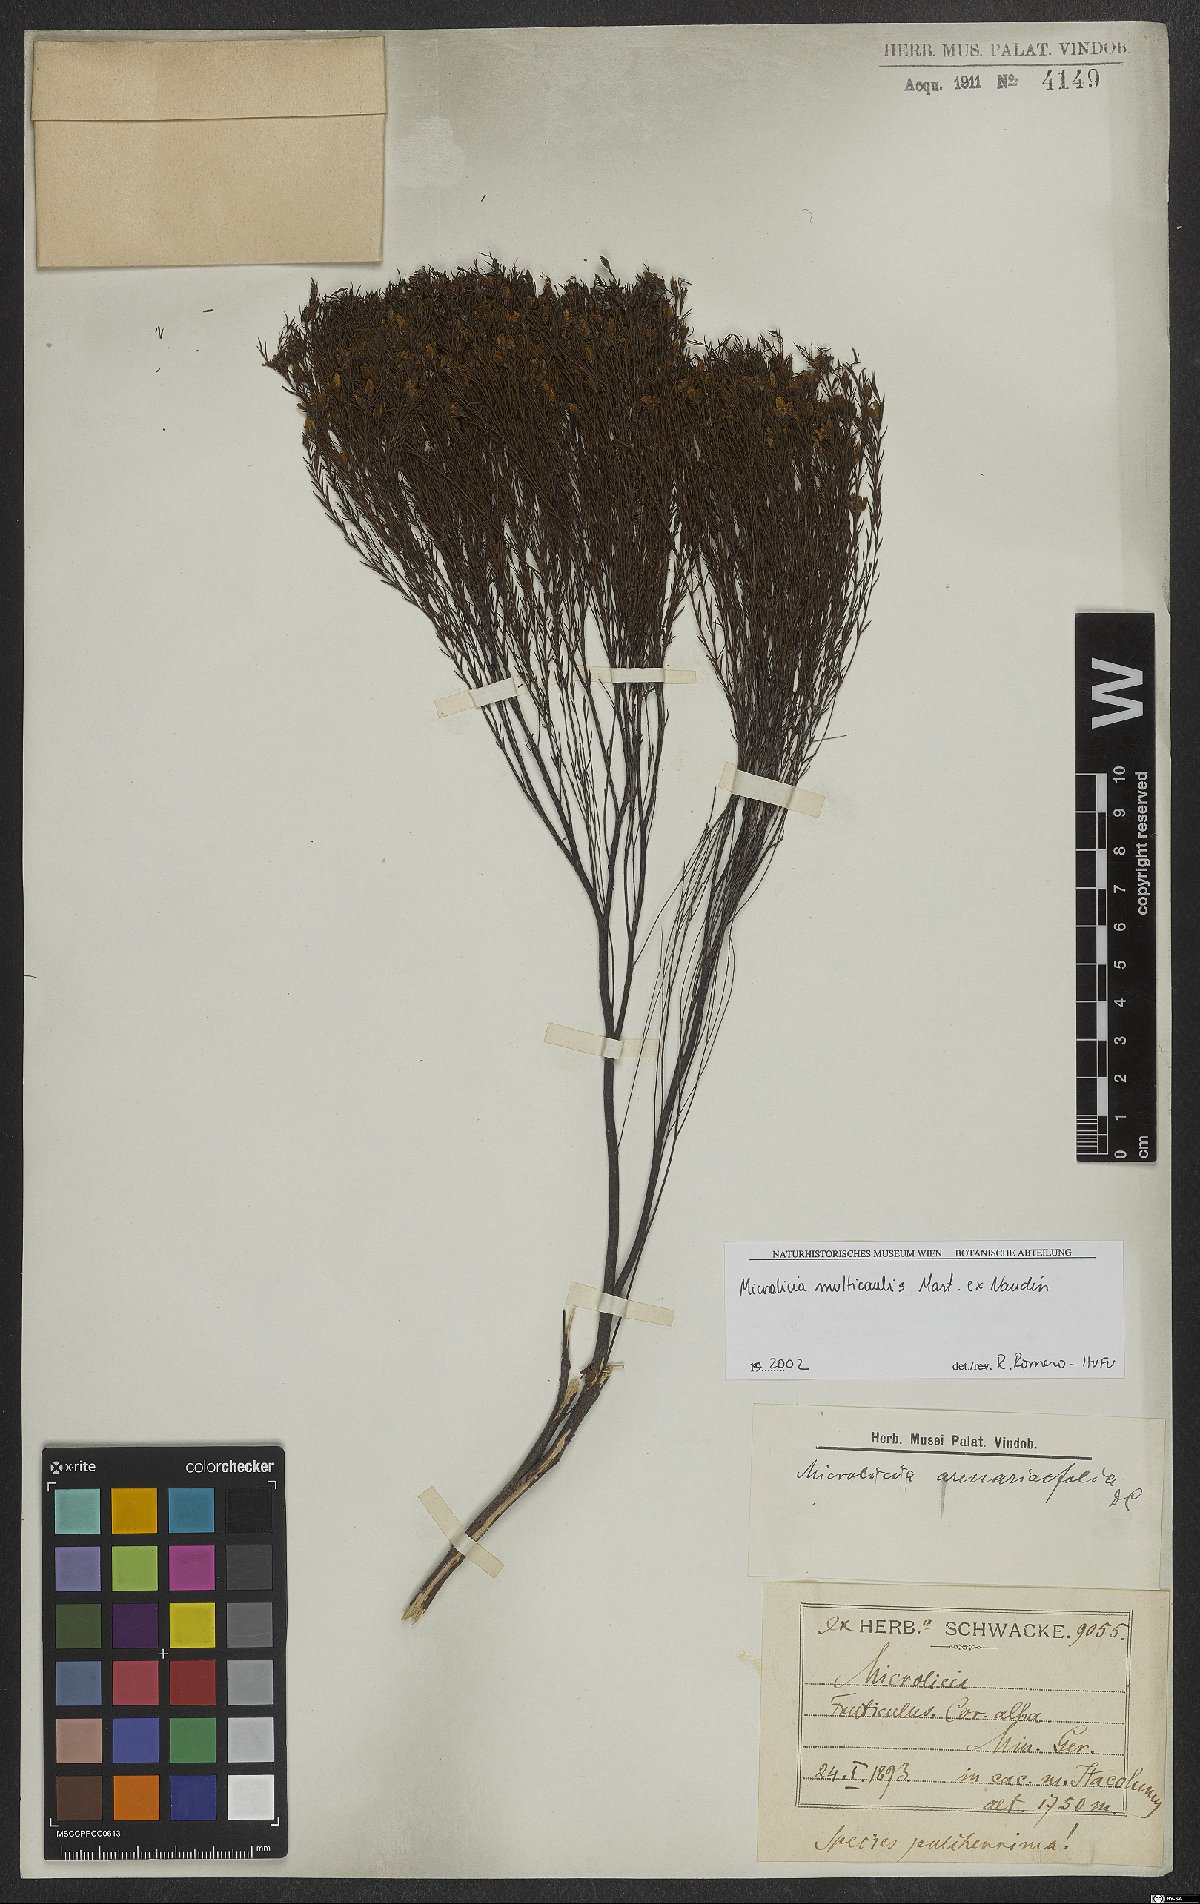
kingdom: Plantae
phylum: Tracheophyta
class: Magnoliopsida
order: Myrtales
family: Melastomataceae
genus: Microlicia
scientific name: Microlicia multicaulis
